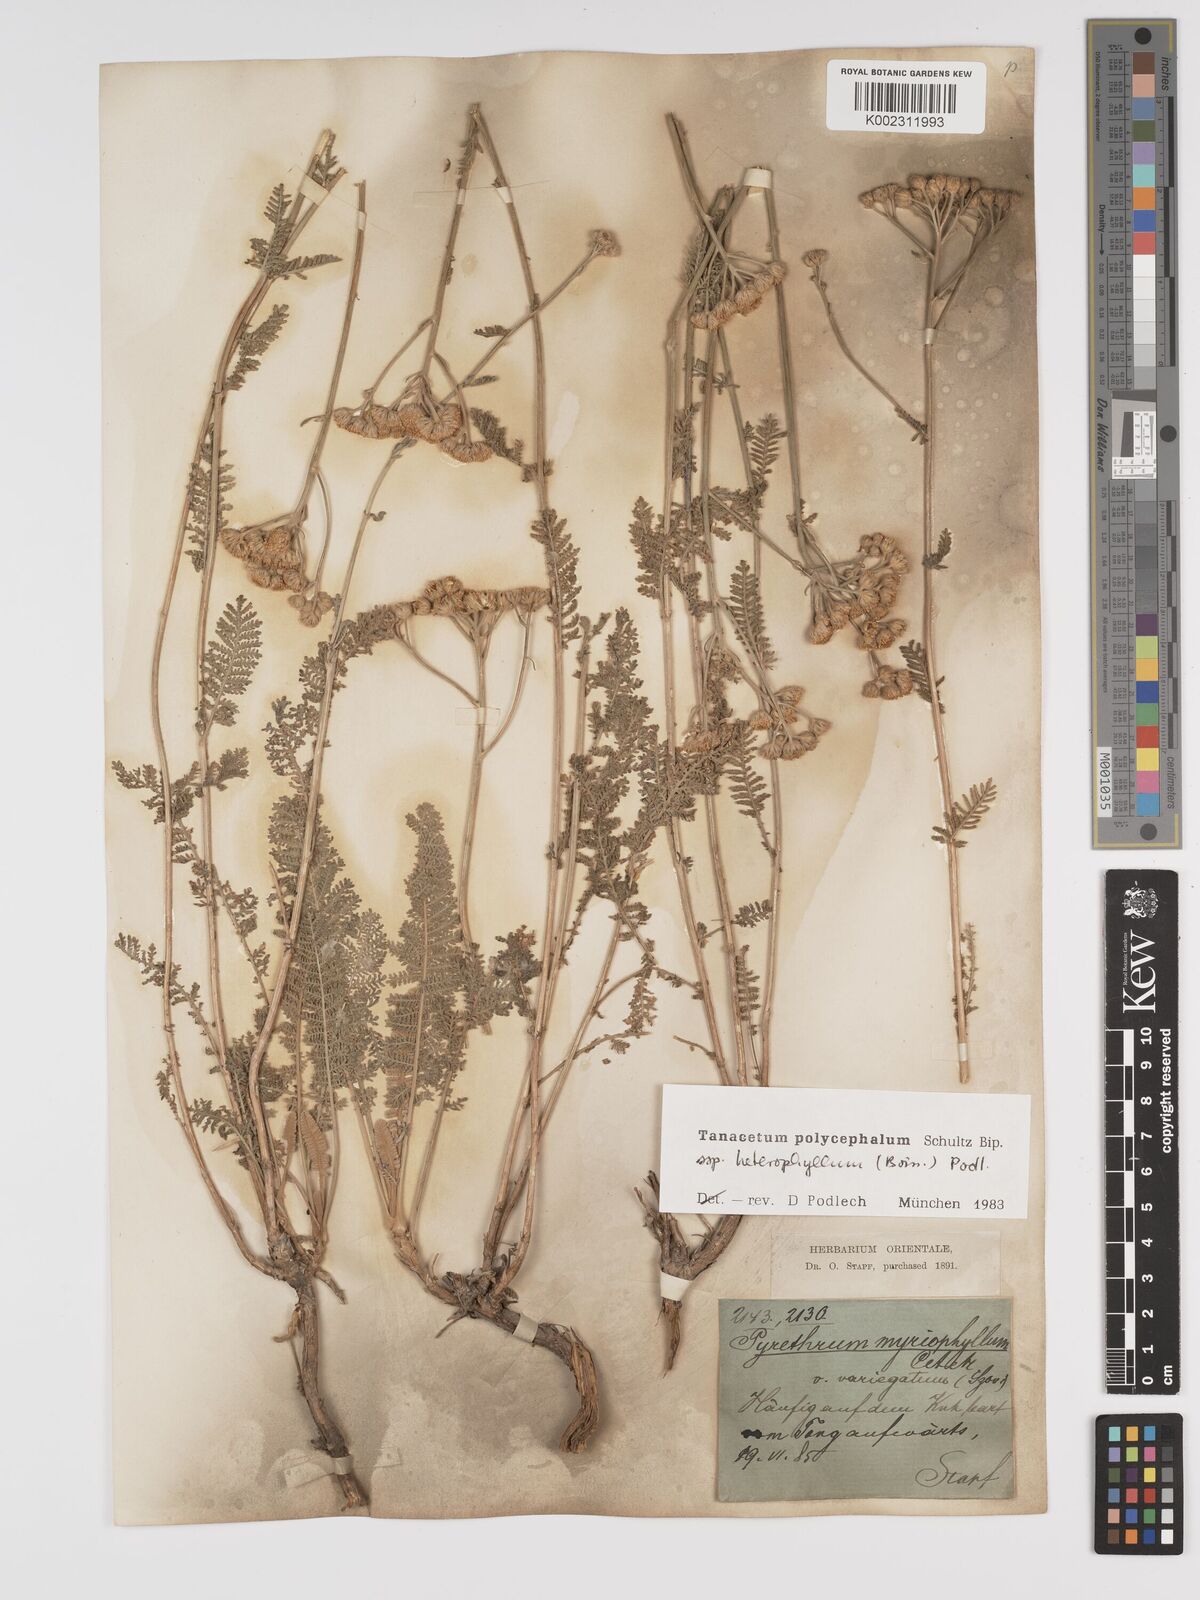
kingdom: Plantae
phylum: Tracheophyta
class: Magnoliopsida
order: Asterales
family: Asteraceae
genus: Tanacetum
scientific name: Tanacetum polycephalum
